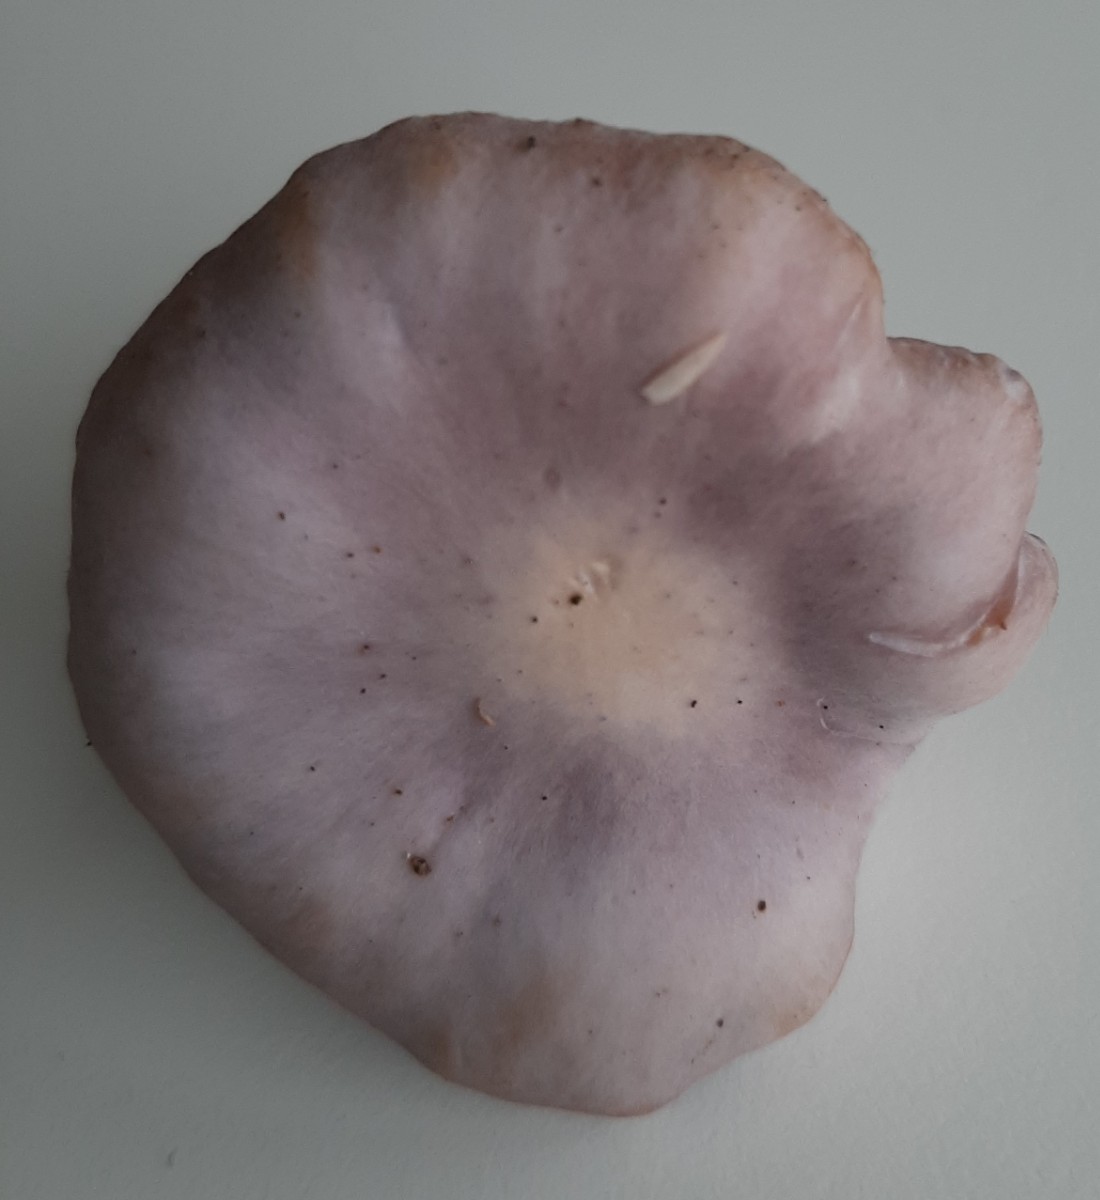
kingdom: Fungi
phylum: Basidiomycota
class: Agaricomycetes
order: Agaricales
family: Tricholomataceae
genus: Lepista
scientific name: Lepista nuda
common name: violet hekseringshat
